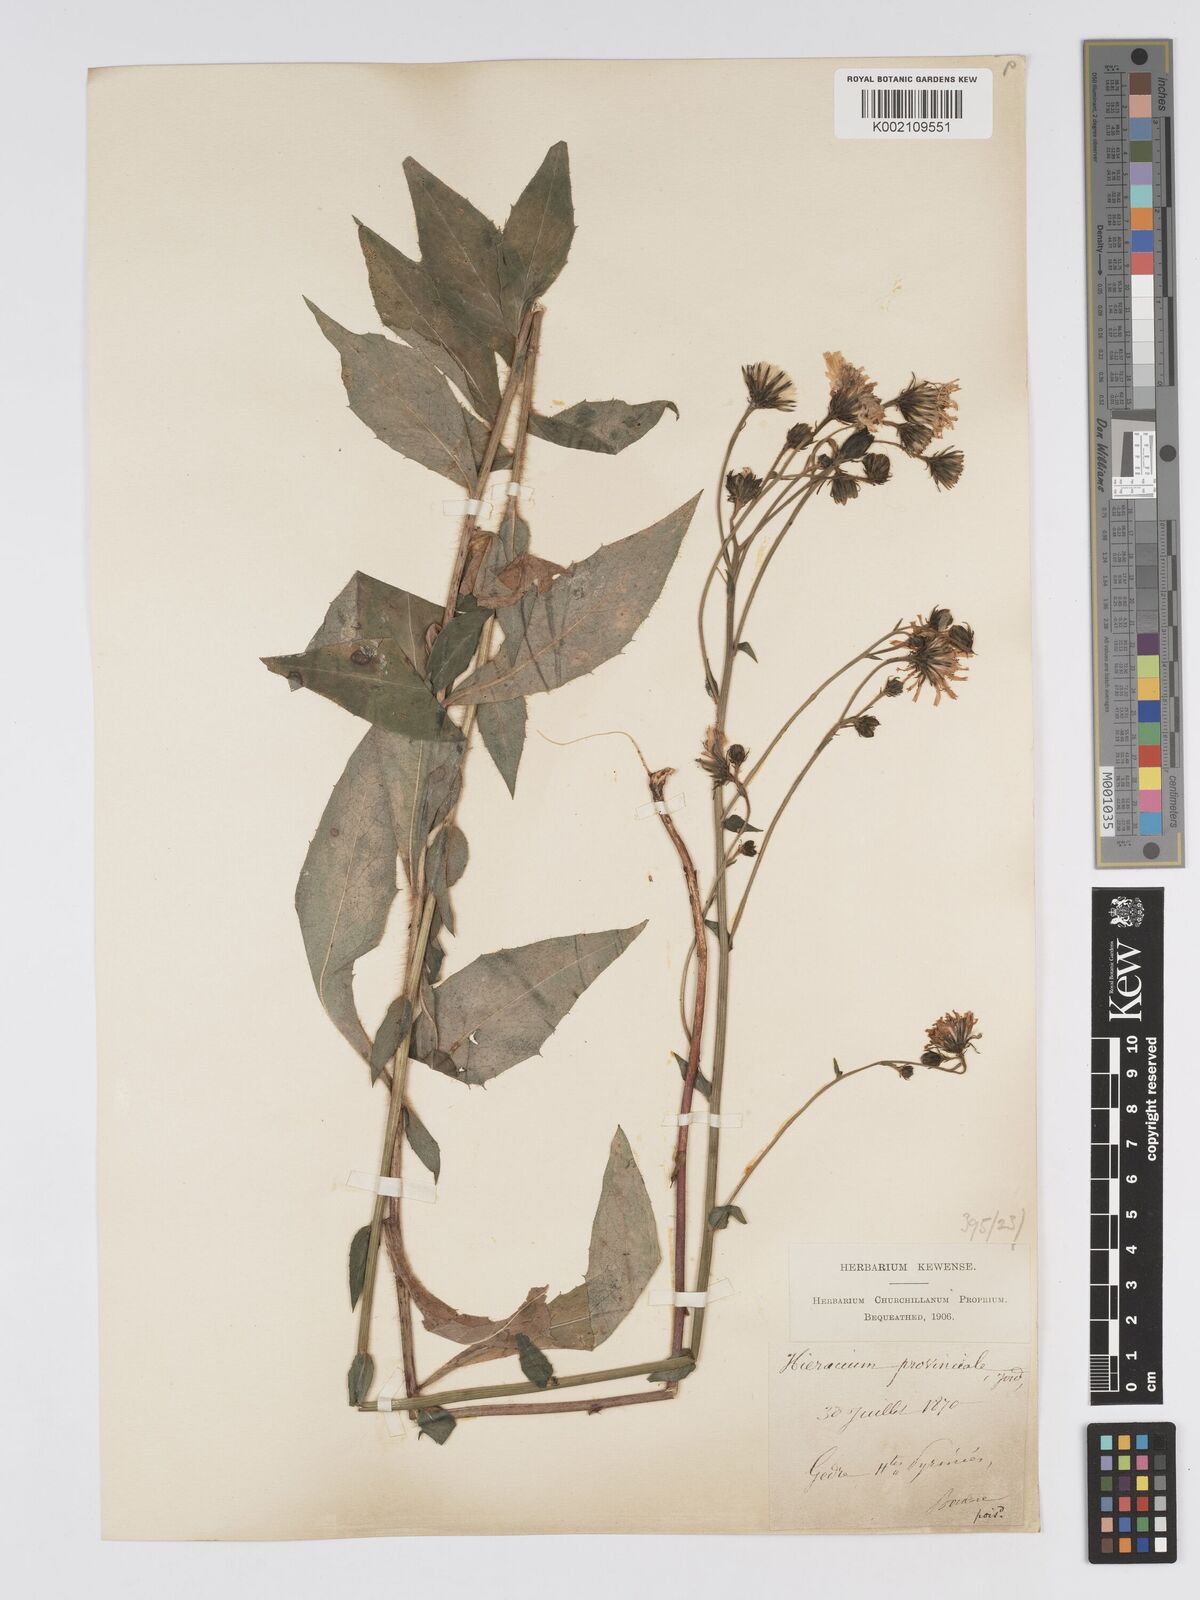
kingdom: Plantae
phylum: Tracheophyta
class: Magnoliopsida
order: Asterales
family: Asteraceae
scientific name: Asteraceae
